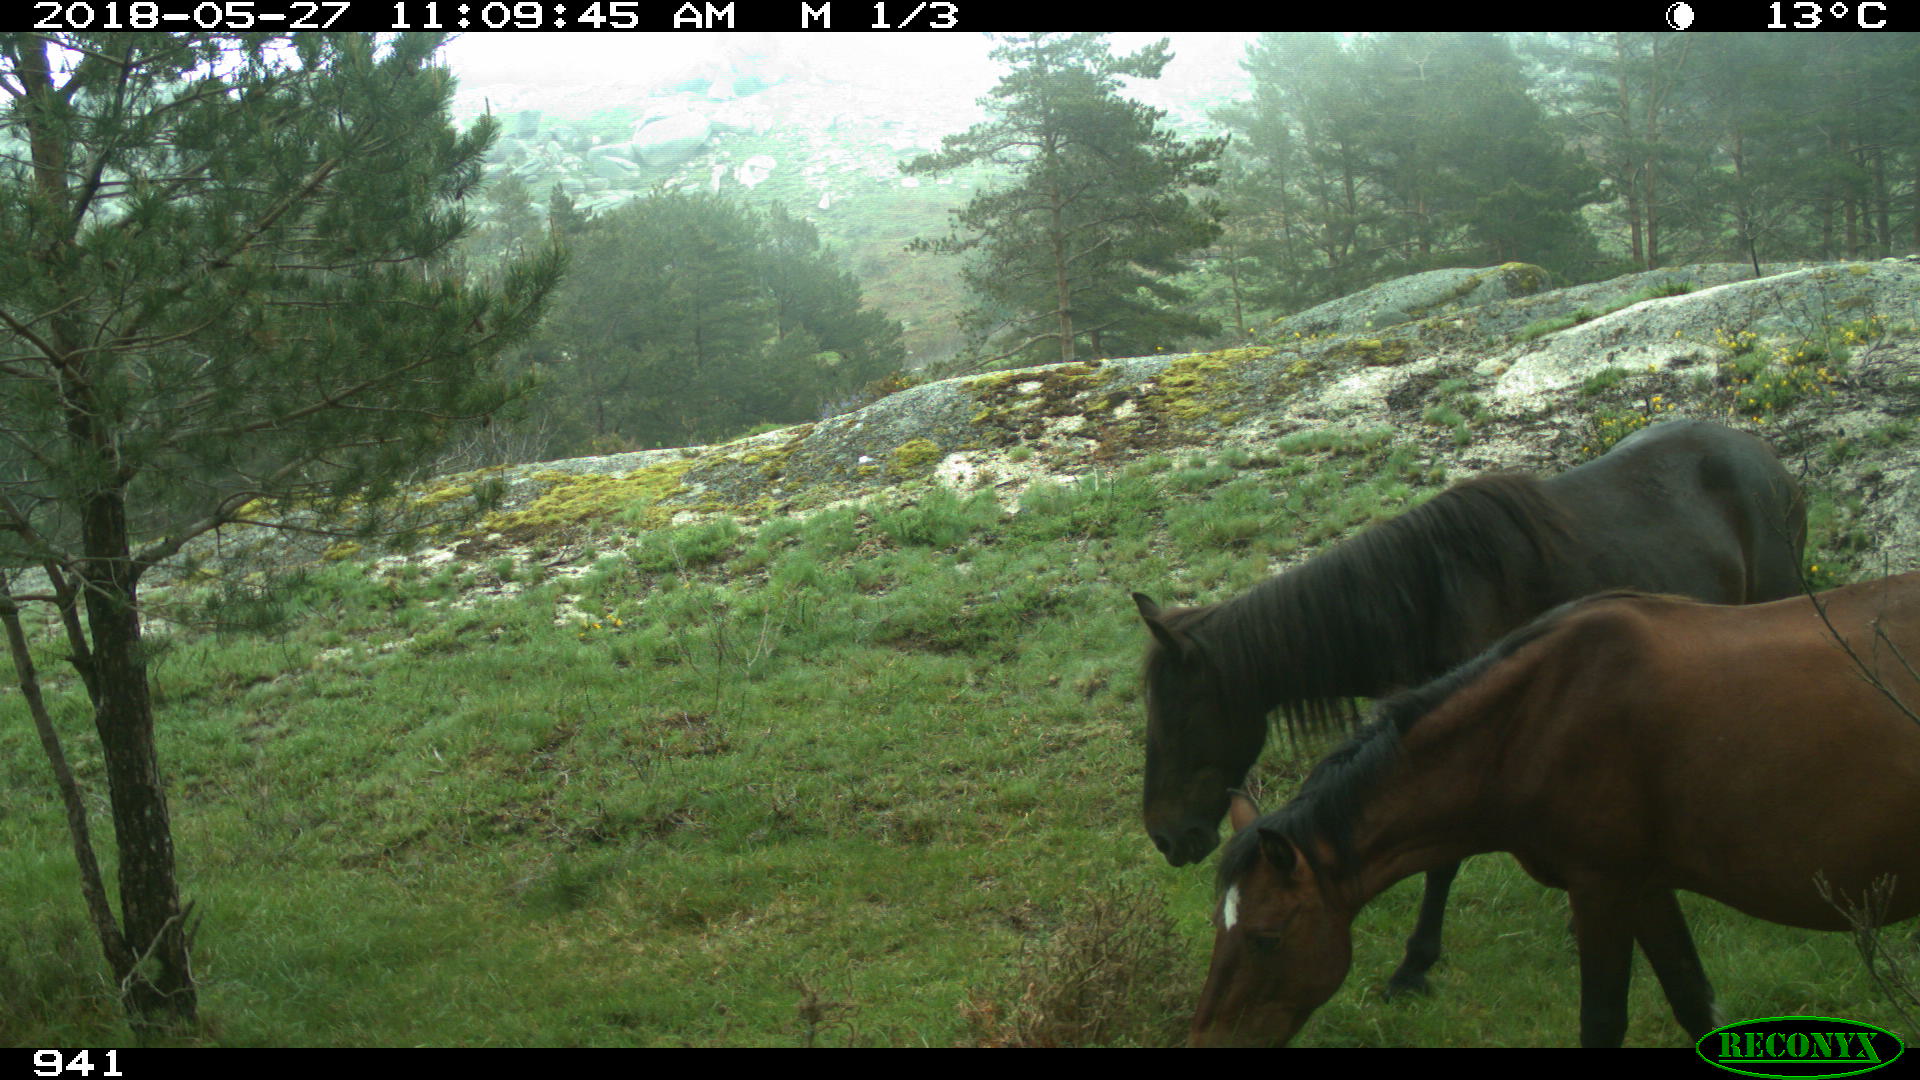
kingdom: Animalia
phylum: Chordata
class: Mammalia
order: Perissodactyla
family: Equidae
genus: Equus
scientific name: Equus caballus
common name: Horse
